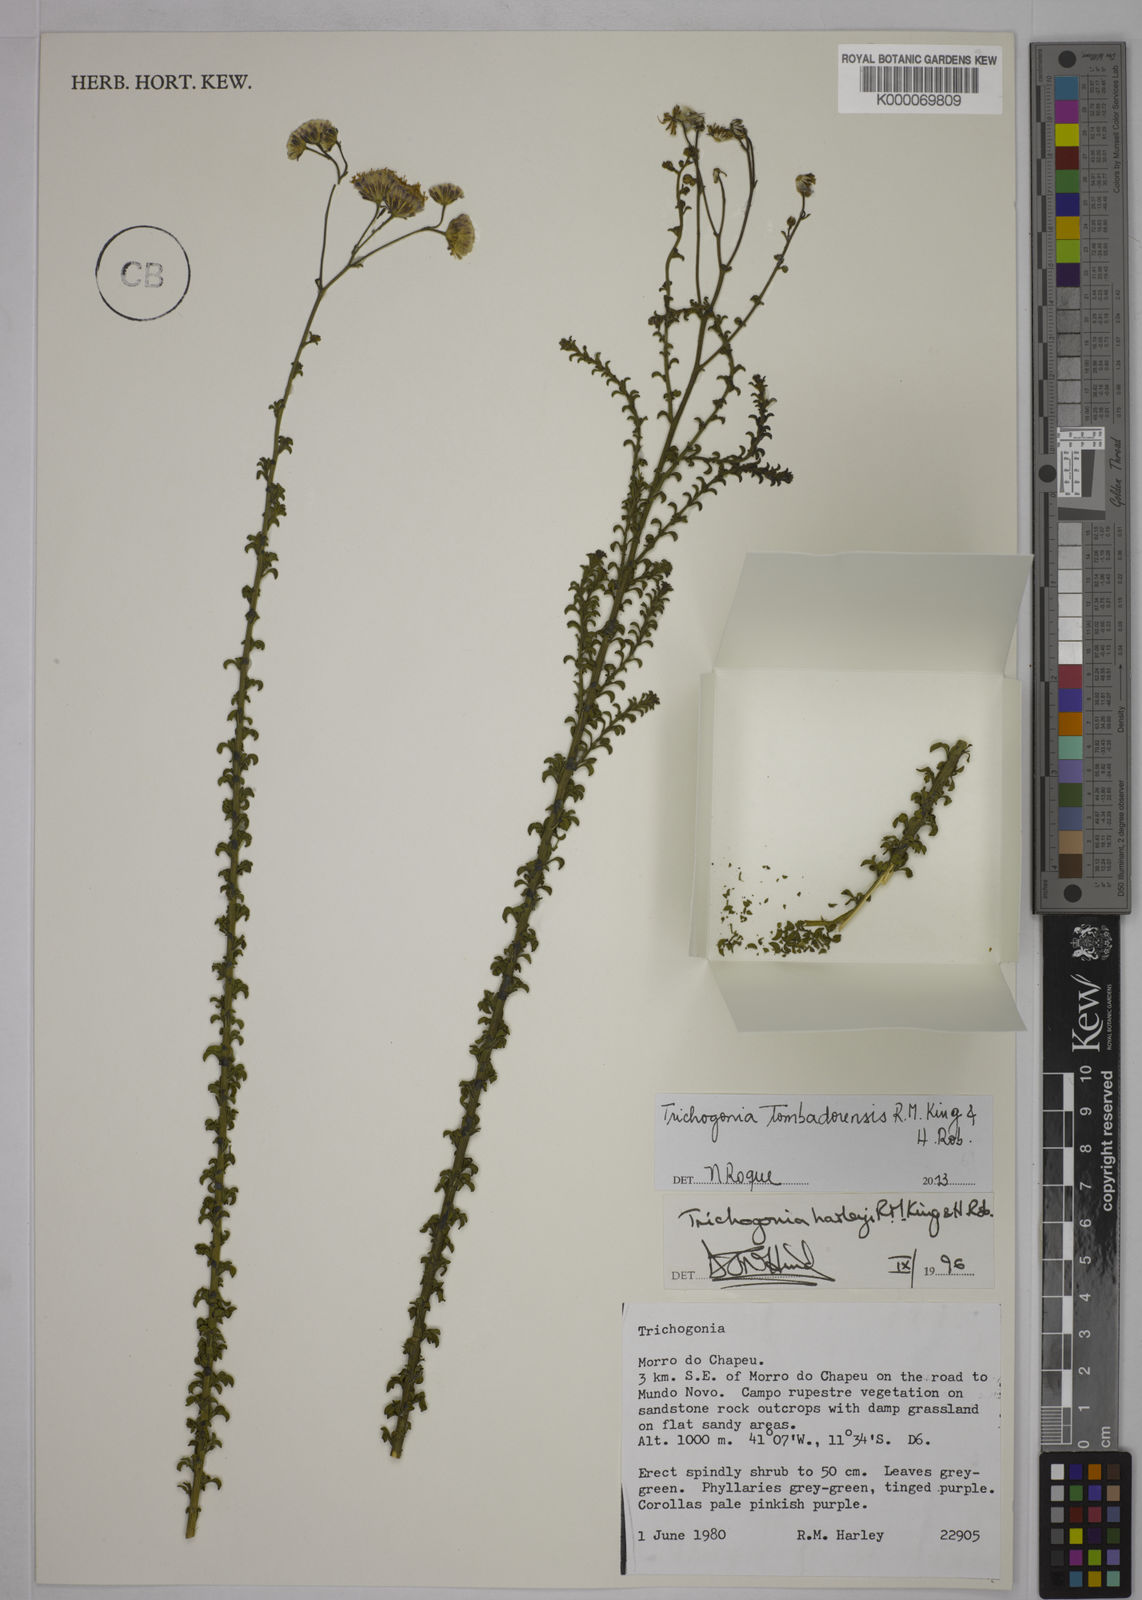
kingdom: Plantae
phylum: Tracheophyta
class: Magnoliopsida
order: Asterales
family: Asteraceae
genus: Trichogonia
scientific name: Trichogonia harleyi
